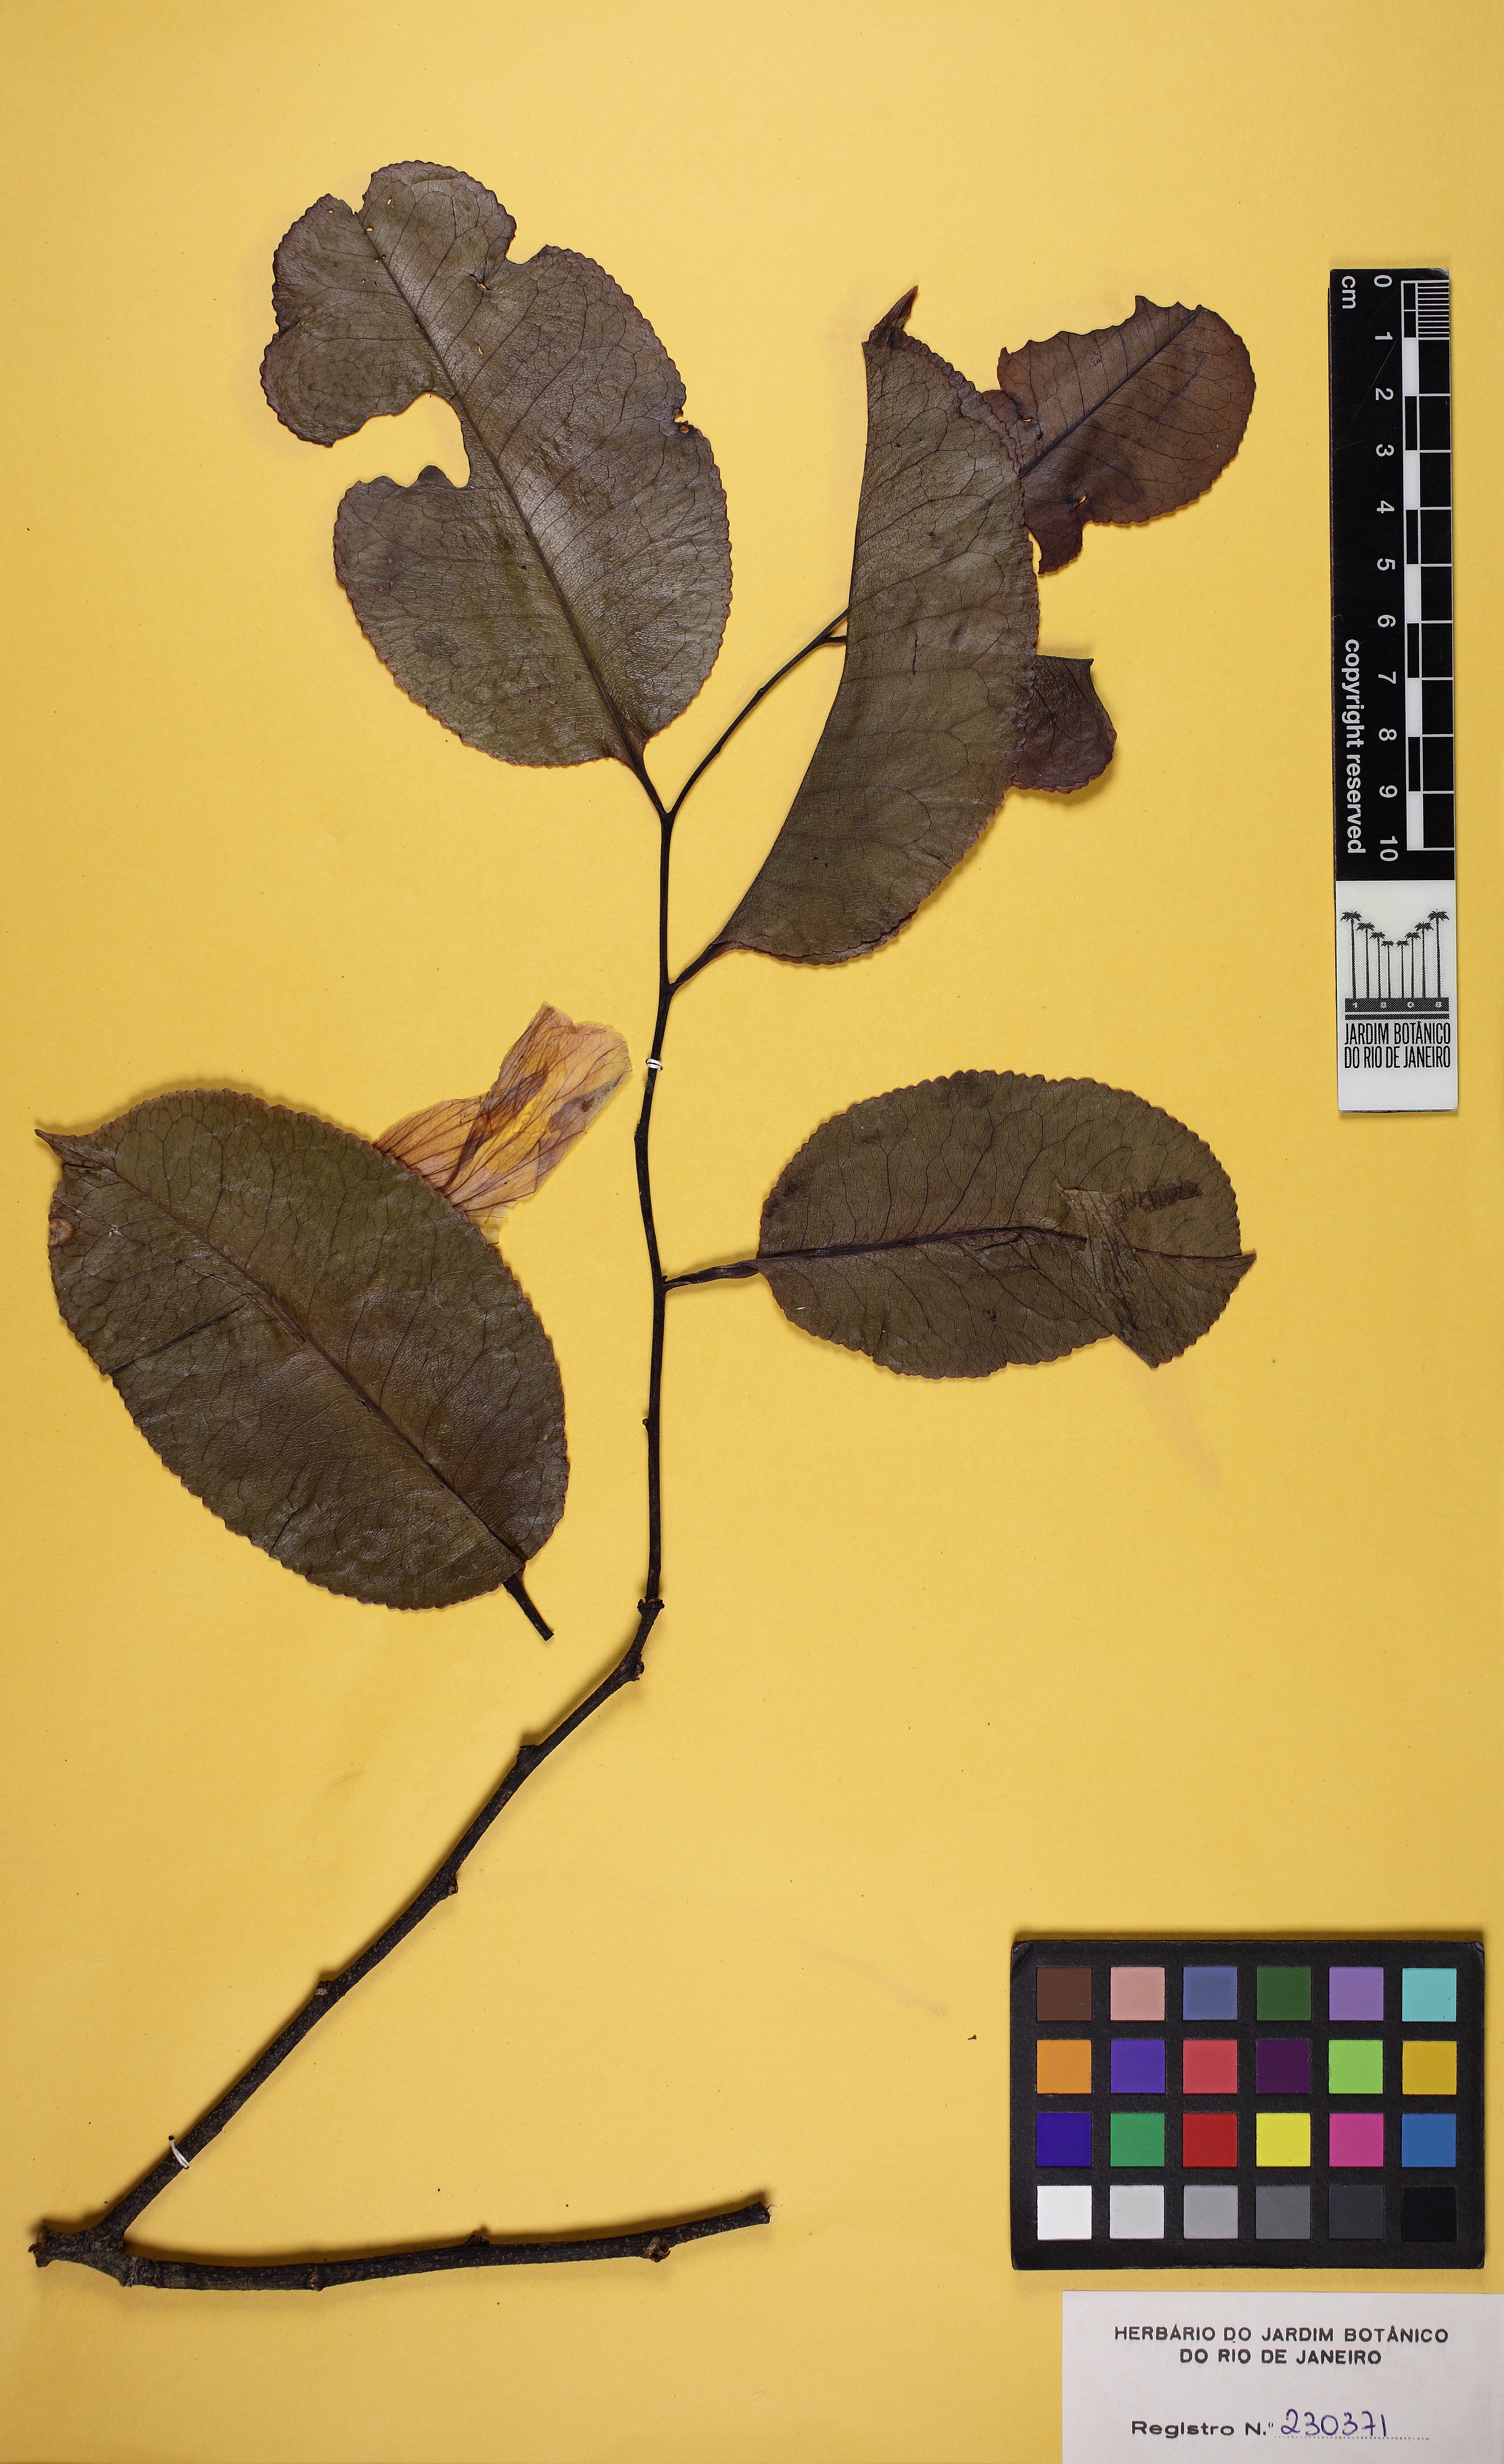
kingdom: Plantae
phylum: Tracheophyta
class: Magnoliopsida
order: Ericales
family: Lecythidaceae
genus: Lecythis
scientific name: Lecythis pisonis
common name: Paradise-nut
